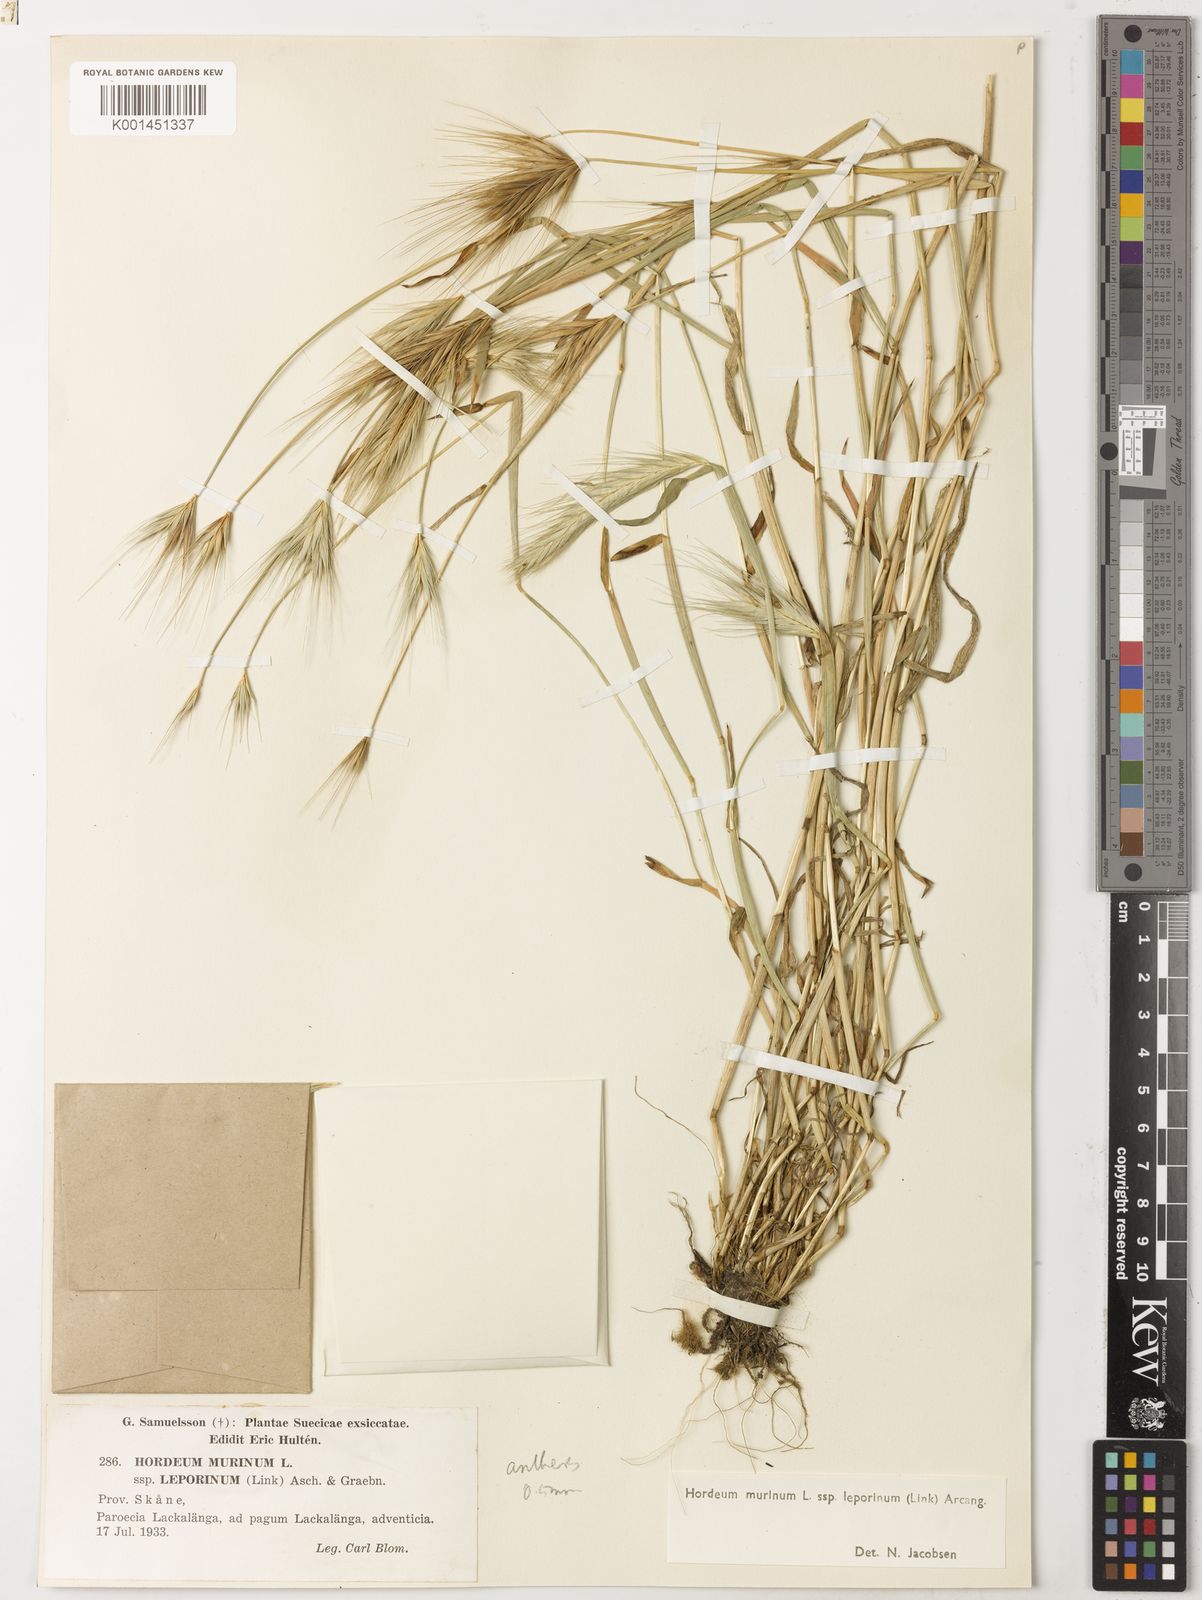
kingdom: Plantae
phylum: Tracheophyta
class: Liliopsida
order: Poales
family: Poaceae
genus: Hordeum
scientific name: Hordeum murinum
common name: Wall barley
